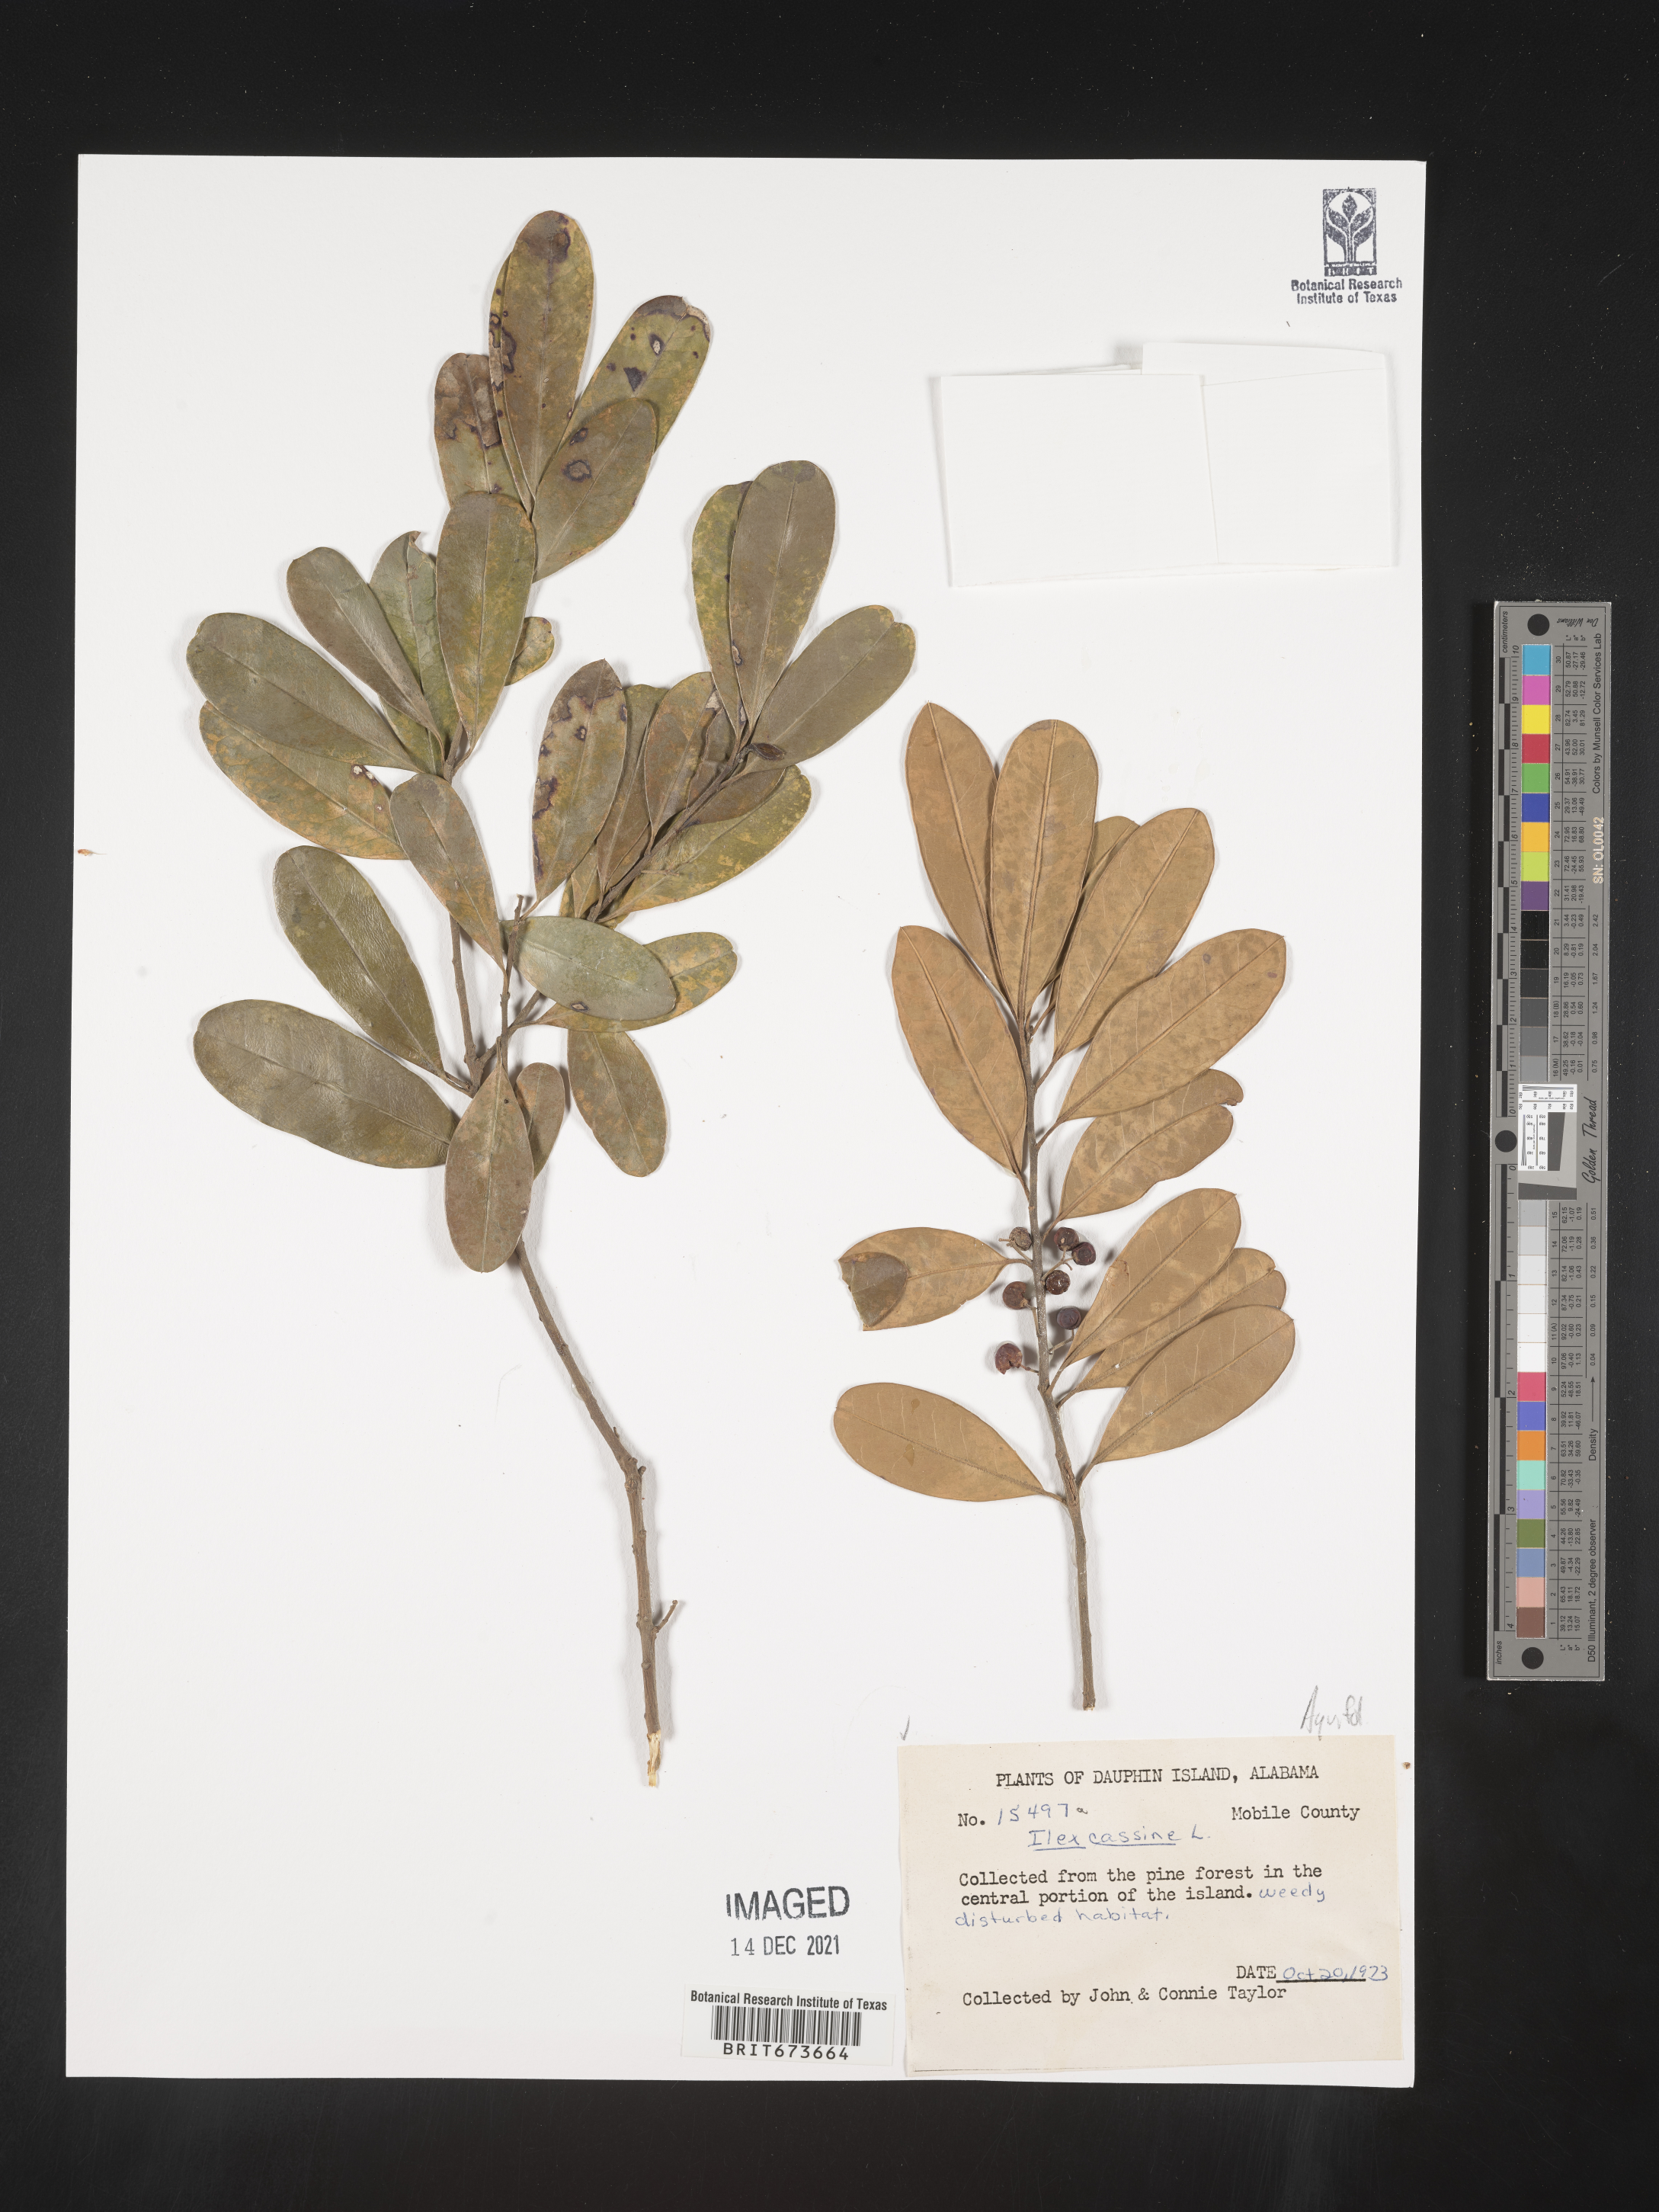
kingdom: Plantae
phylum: Tracheophyta
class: Magnoliopsida
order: Aquifoliales
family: Aquifoliaceae
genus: Ilex
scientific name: Ilex cassine
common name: Dahoon
